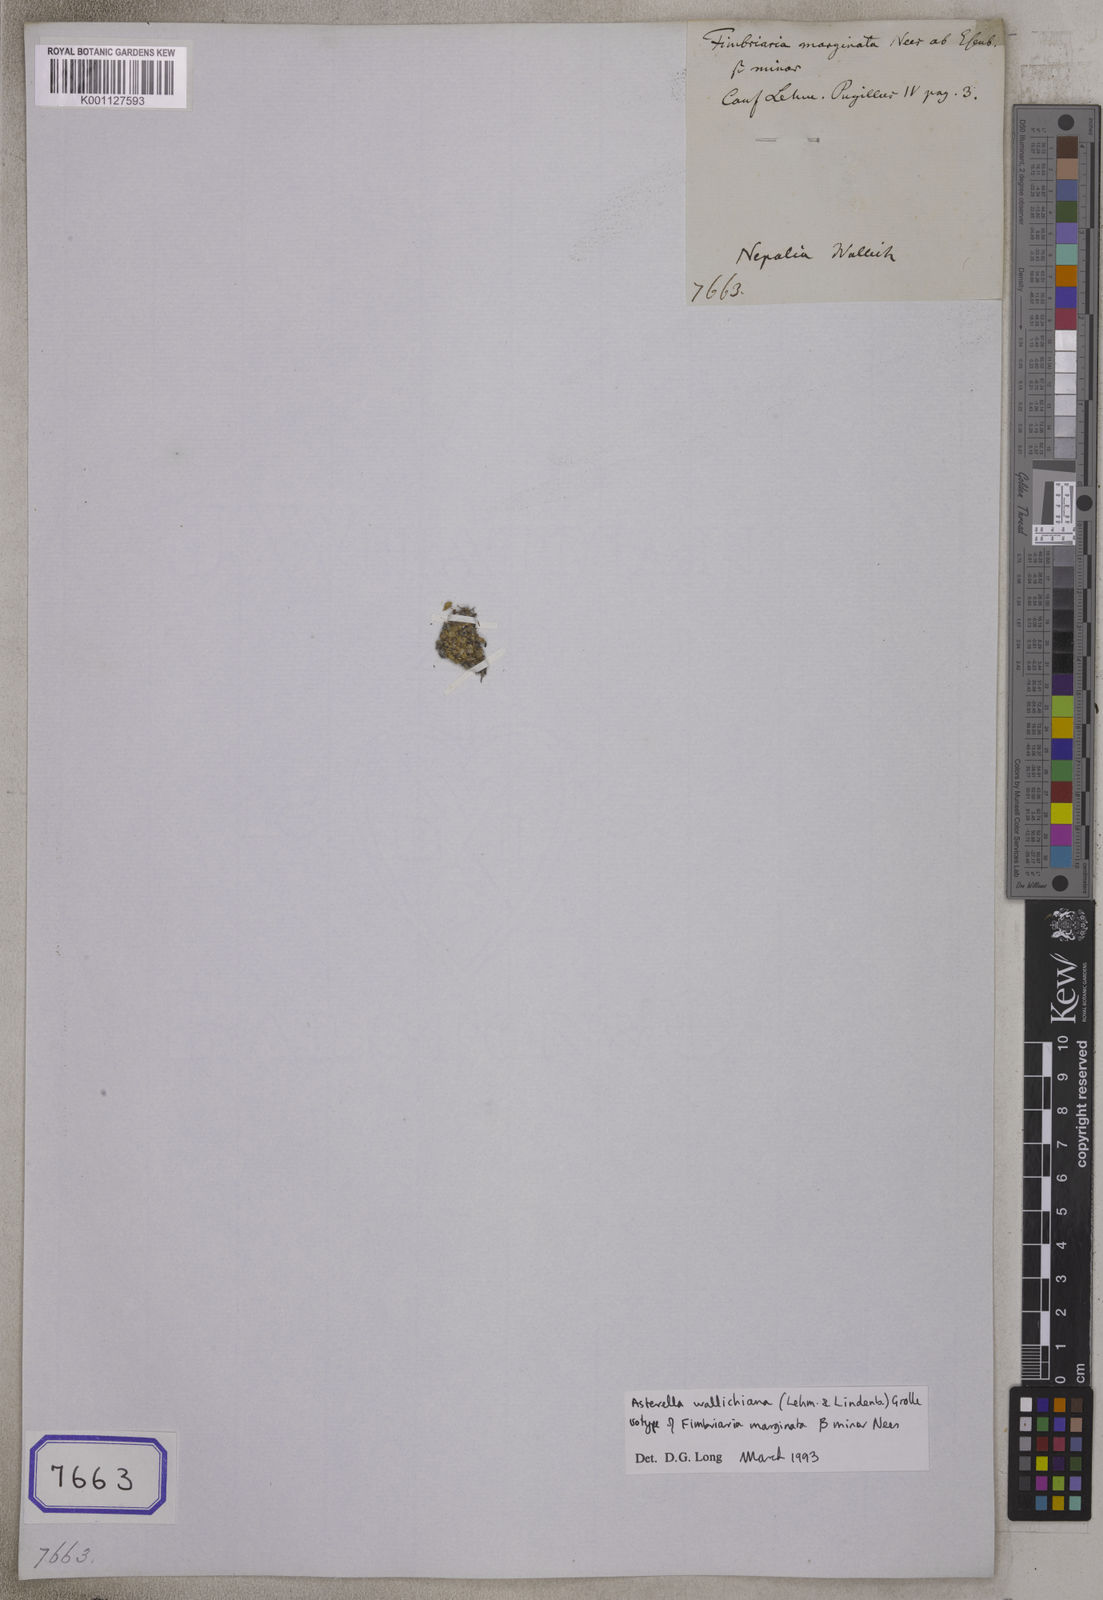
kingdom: Plantae
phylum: Marchantiophyta
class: Marchantiopsida
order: Marchantiales
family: Aytoniaceae
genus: Fimbriaria
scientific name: Fimbriaria
